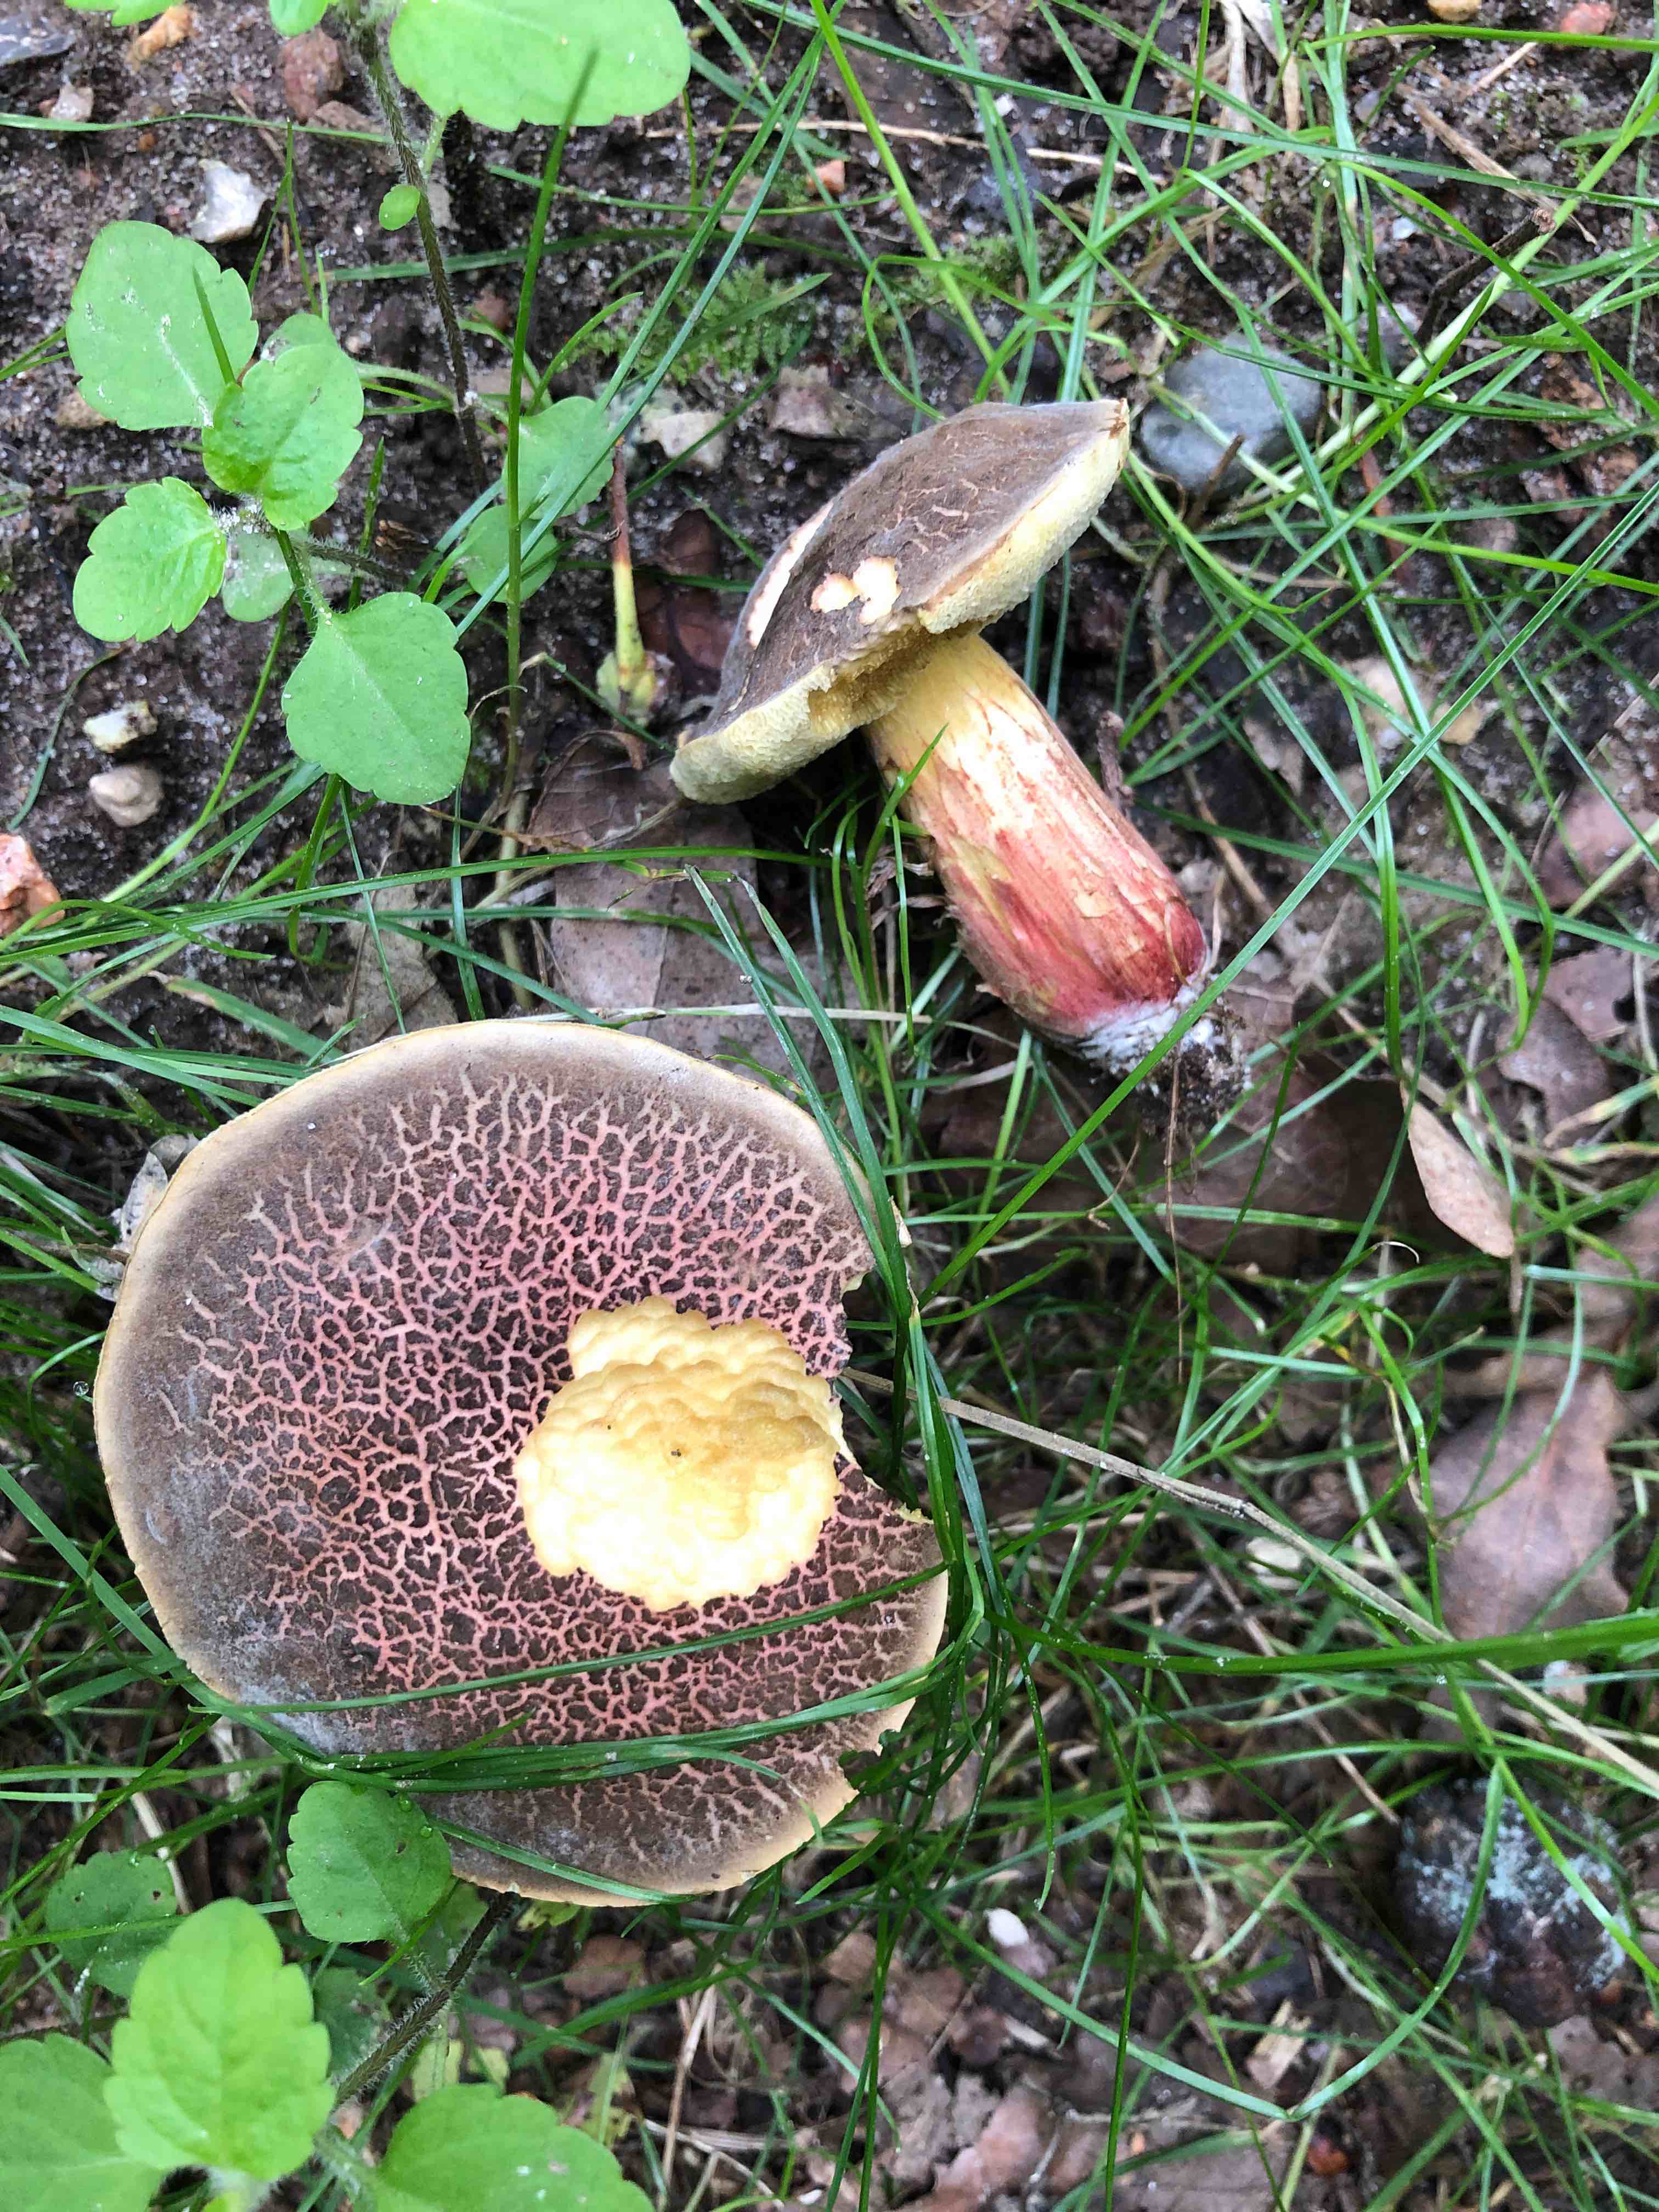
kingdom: Fungi
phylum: Basidiomycota
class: Agaricomycetes
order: Boletales
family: Boletaceae
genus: Xerocomellus
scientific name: Xerocomellus chrysenteron
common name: rødsprukken rørhat
